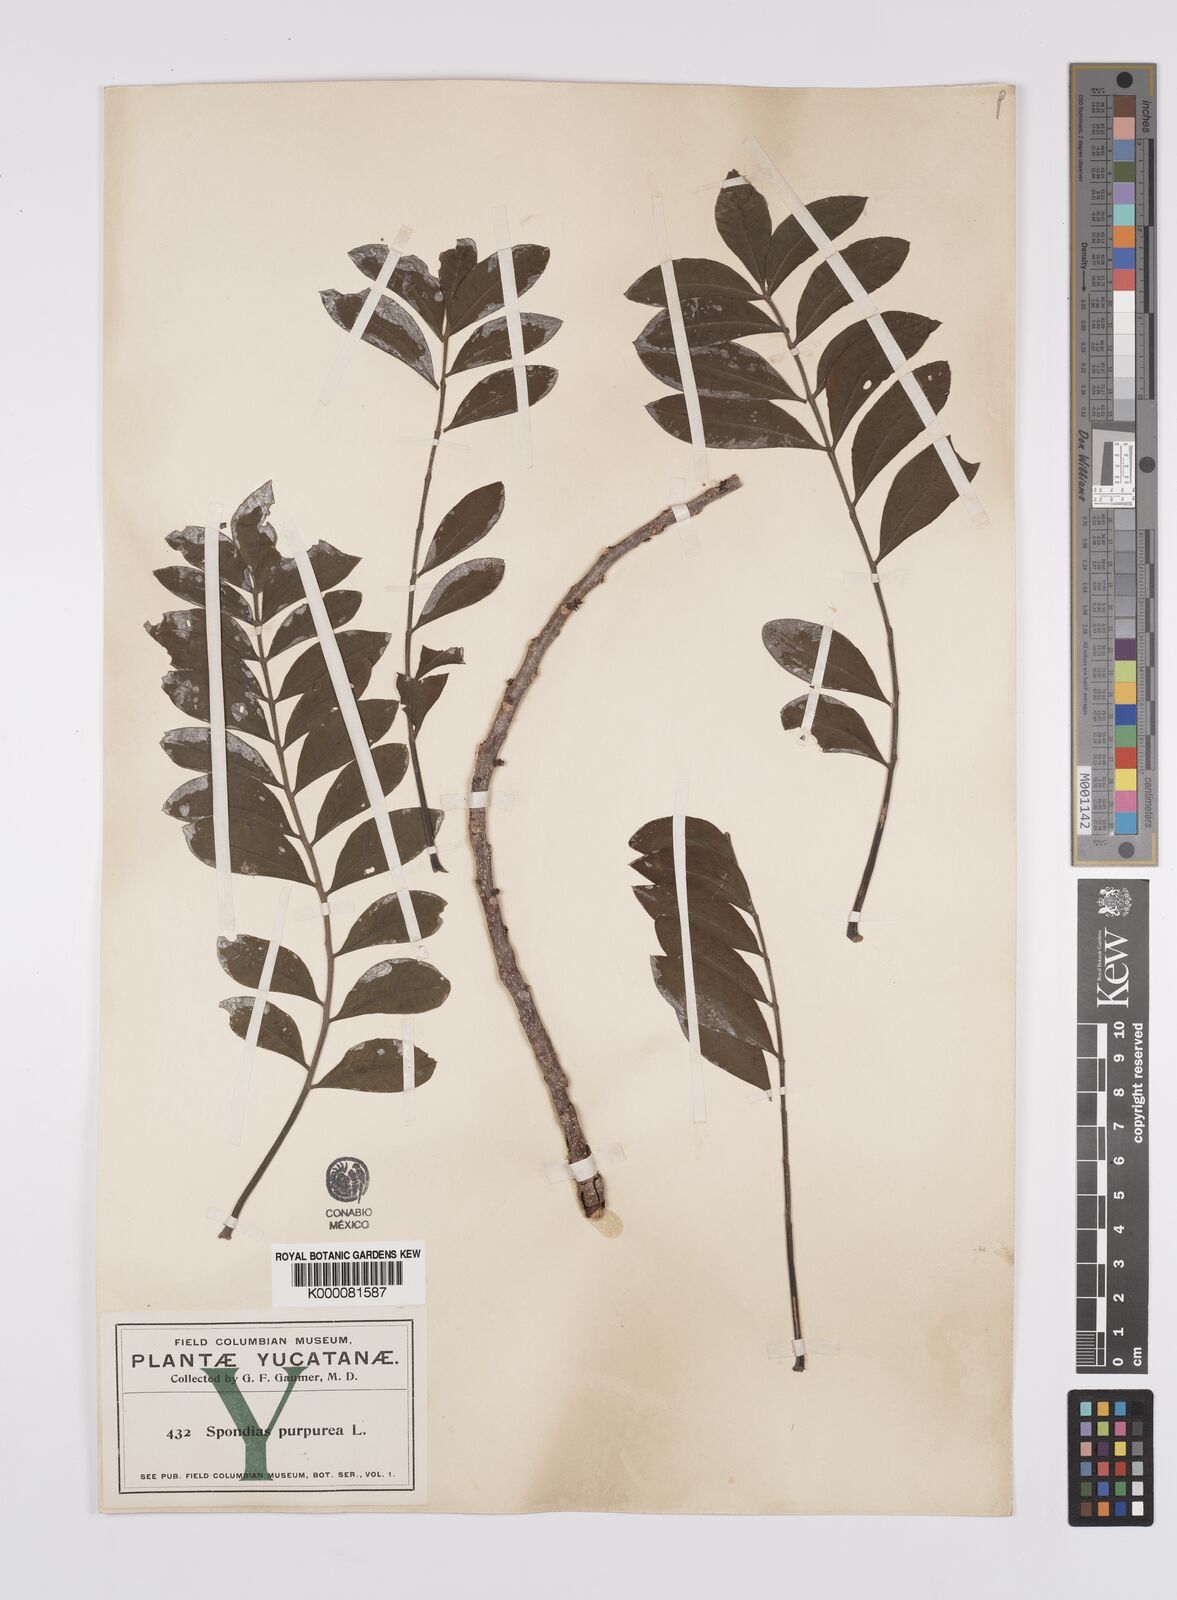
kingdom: Plantae
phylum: Tracheophyta
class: Magnoliopsida
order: Sapindales
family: Anacardiaceae
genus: Spondias
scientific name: Spondias purpurea
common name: Purple mombin
